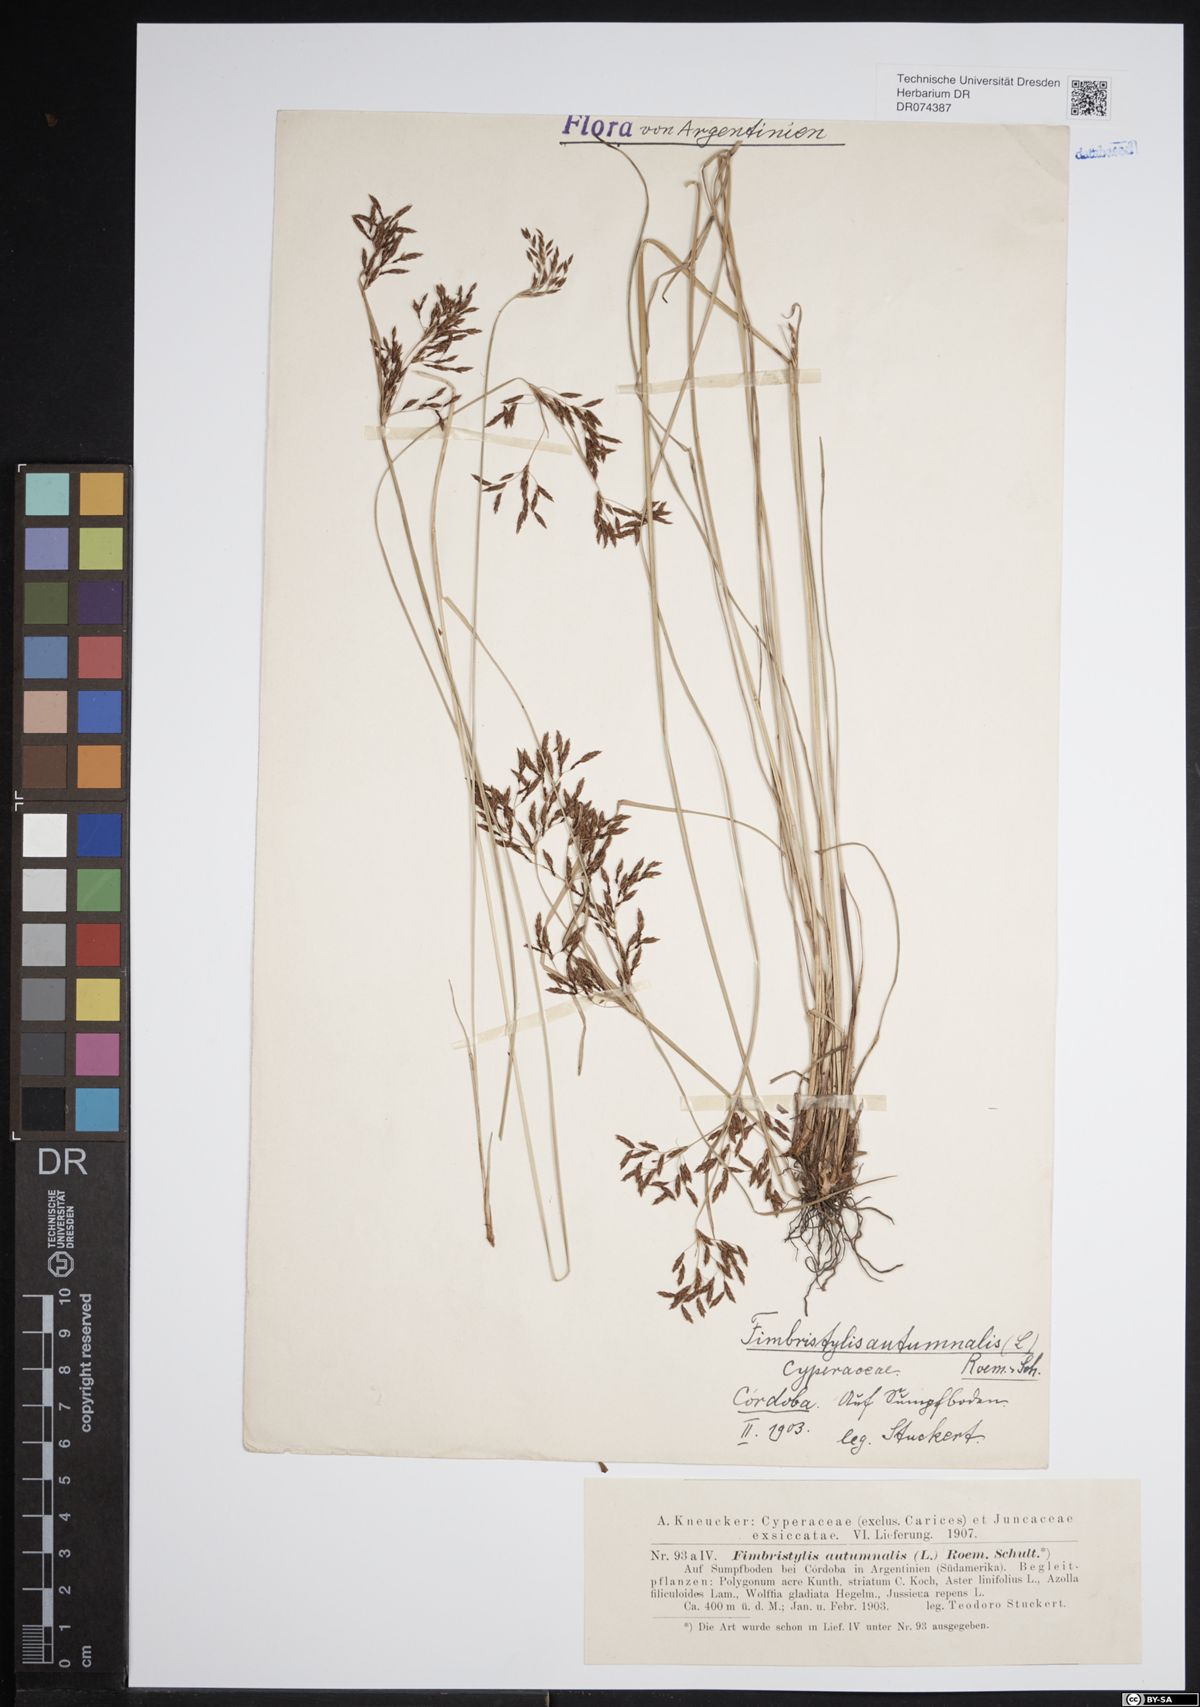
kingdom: Plantae
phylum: Tracheophyta
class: Liliopsida
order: Poales
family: Cyperaceae
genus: Fimbristylis
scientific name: Fimbristylis autumnalis
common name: Slender fimbristylis
